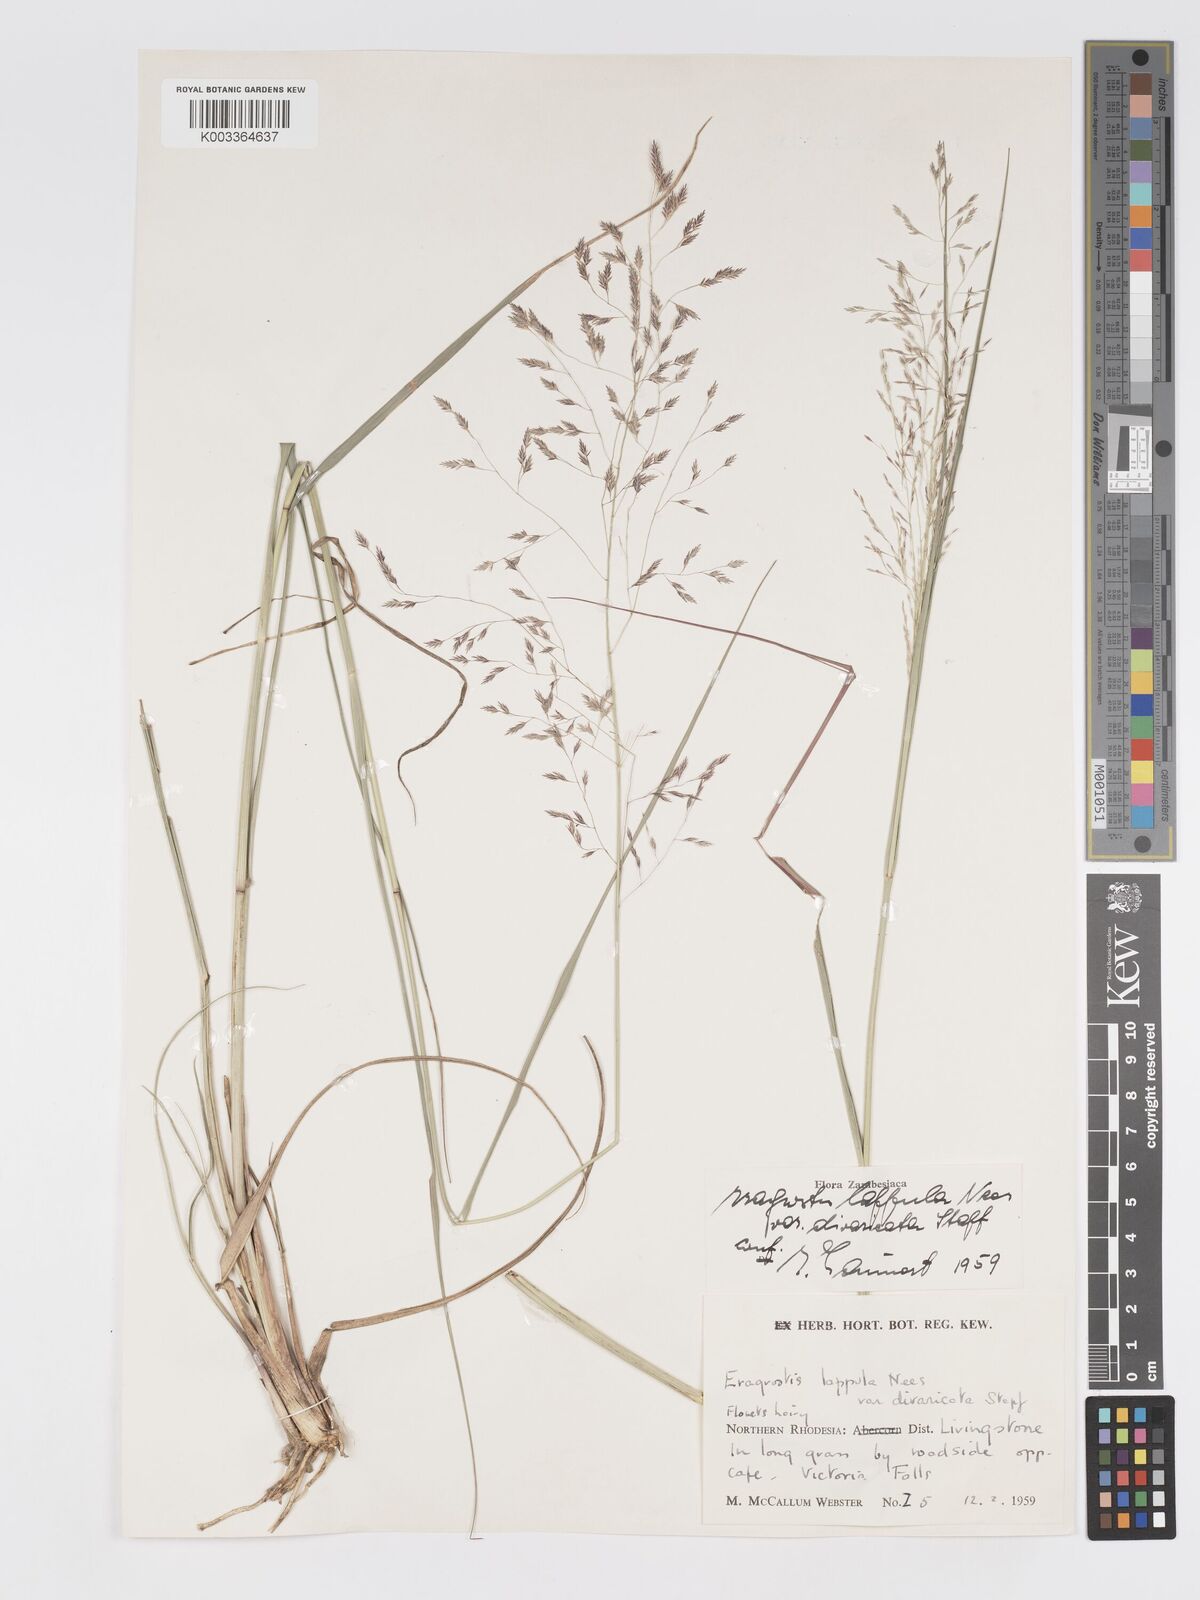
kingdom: Plantae
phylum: Tracheophyta
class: Liliopsida
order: Poales
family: Poaceae
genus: Eragrostis
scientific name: Eragrostis lappula
